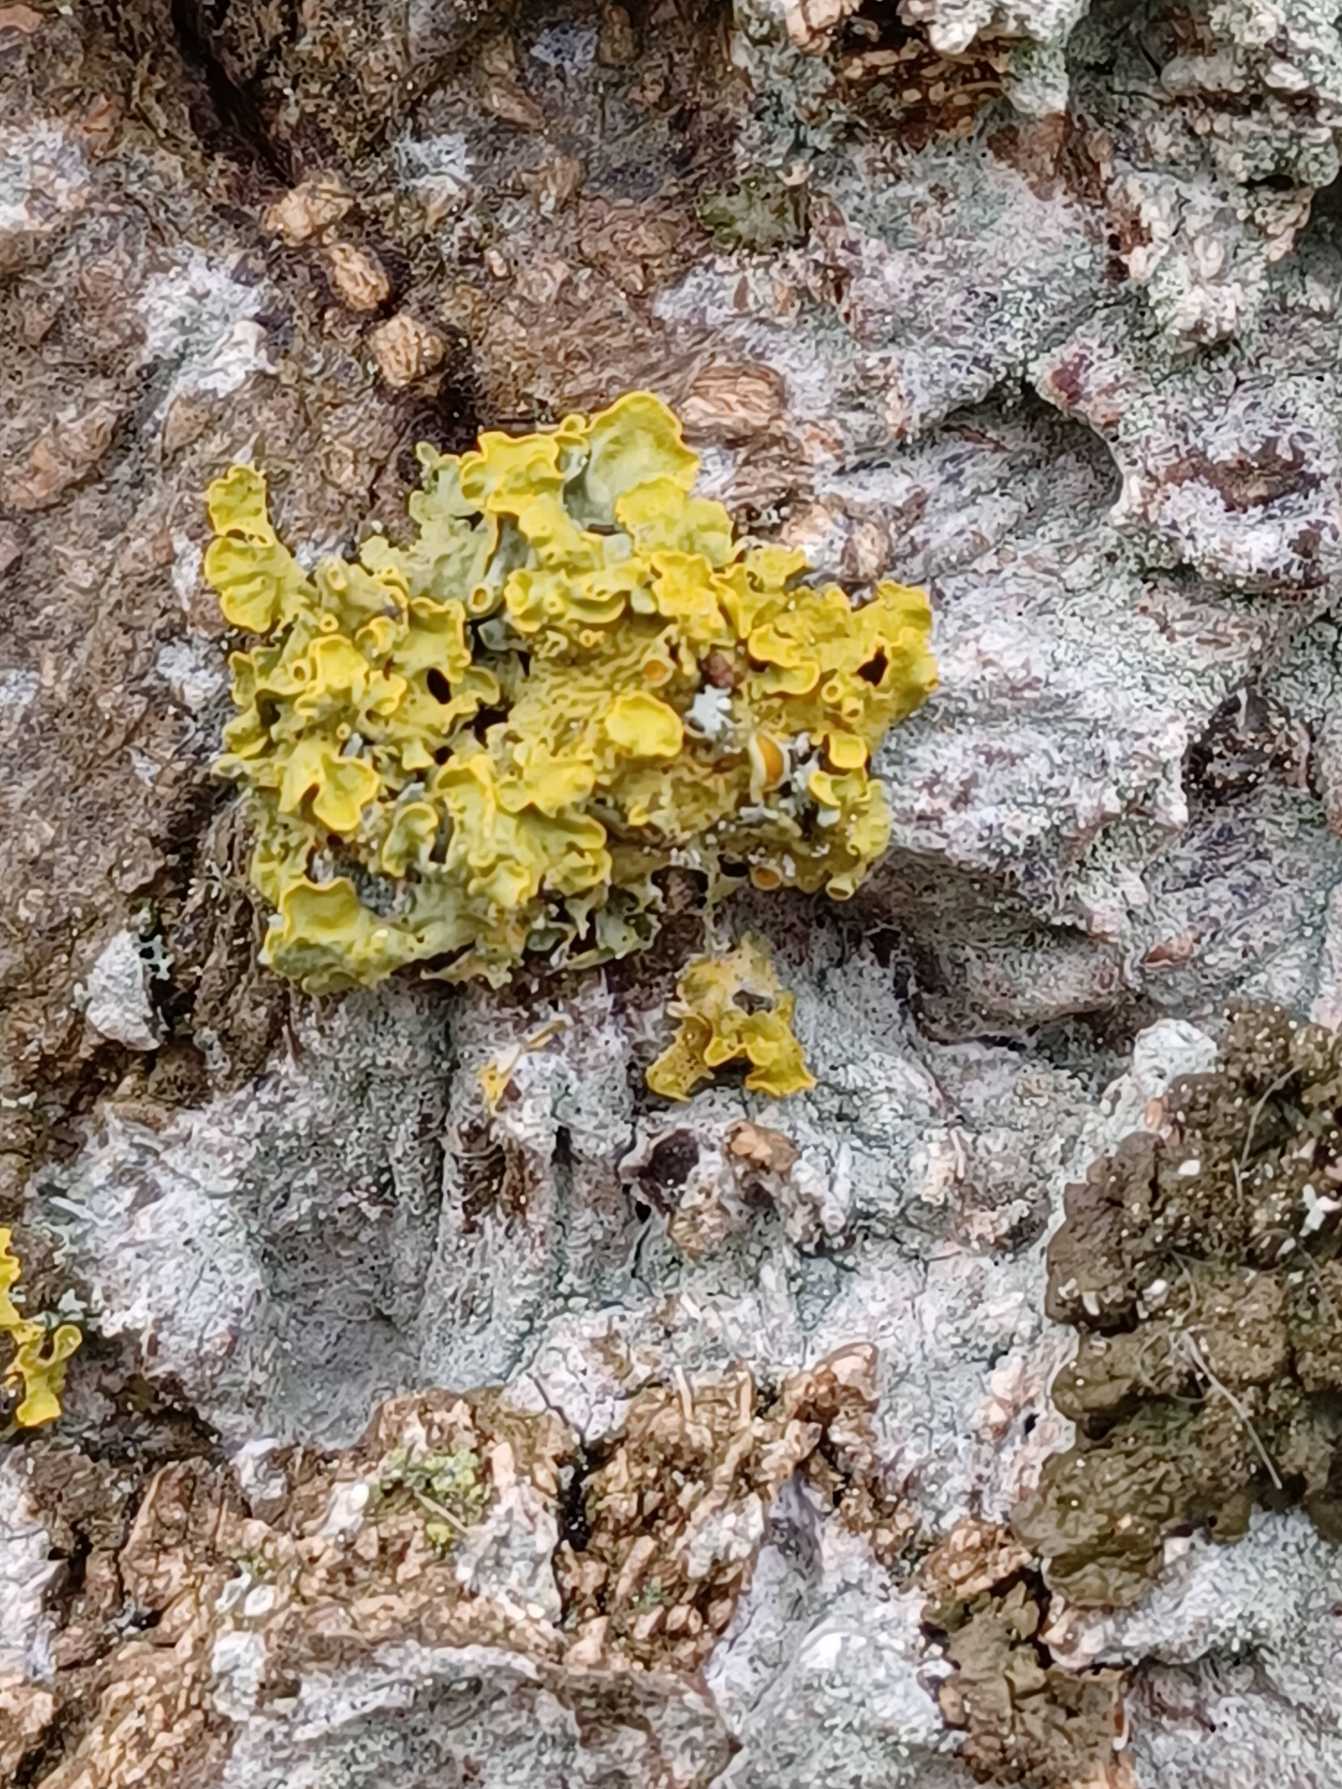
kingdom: Fungi
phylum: Ascomycota
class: Lecanoromycetes
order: Teloschistales
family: Teloschistaceae
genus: Xanthoria
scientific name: Xanthoria parietina
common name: Almindelig væggelav
